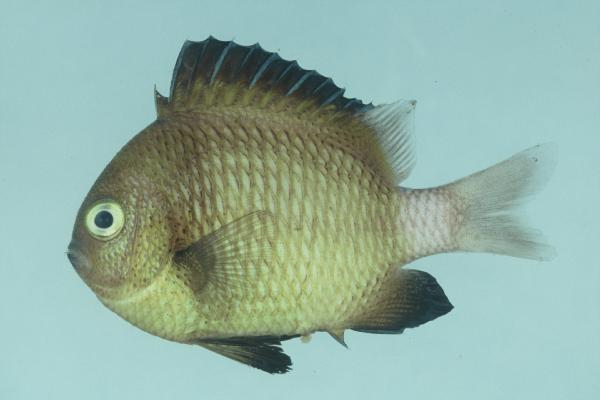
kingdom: Animalia
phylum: Chordata
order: Perciformes
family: Pomacentridae
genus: Dascyllus
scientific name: Dascyllus carneus
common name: Indian dascyllus
